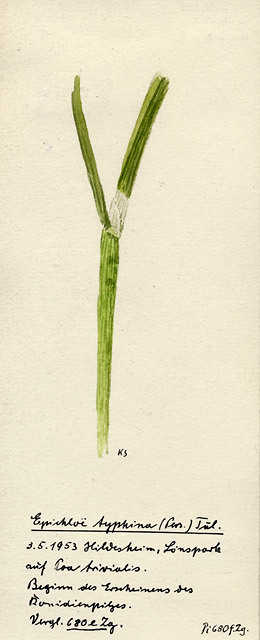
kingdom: Fungi
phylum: Ascomycota
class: Sordariomycetes
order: Hypocreales
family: Clavicipitaceae
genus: Epichloe
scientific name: Epichloe typhina
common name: Choke
